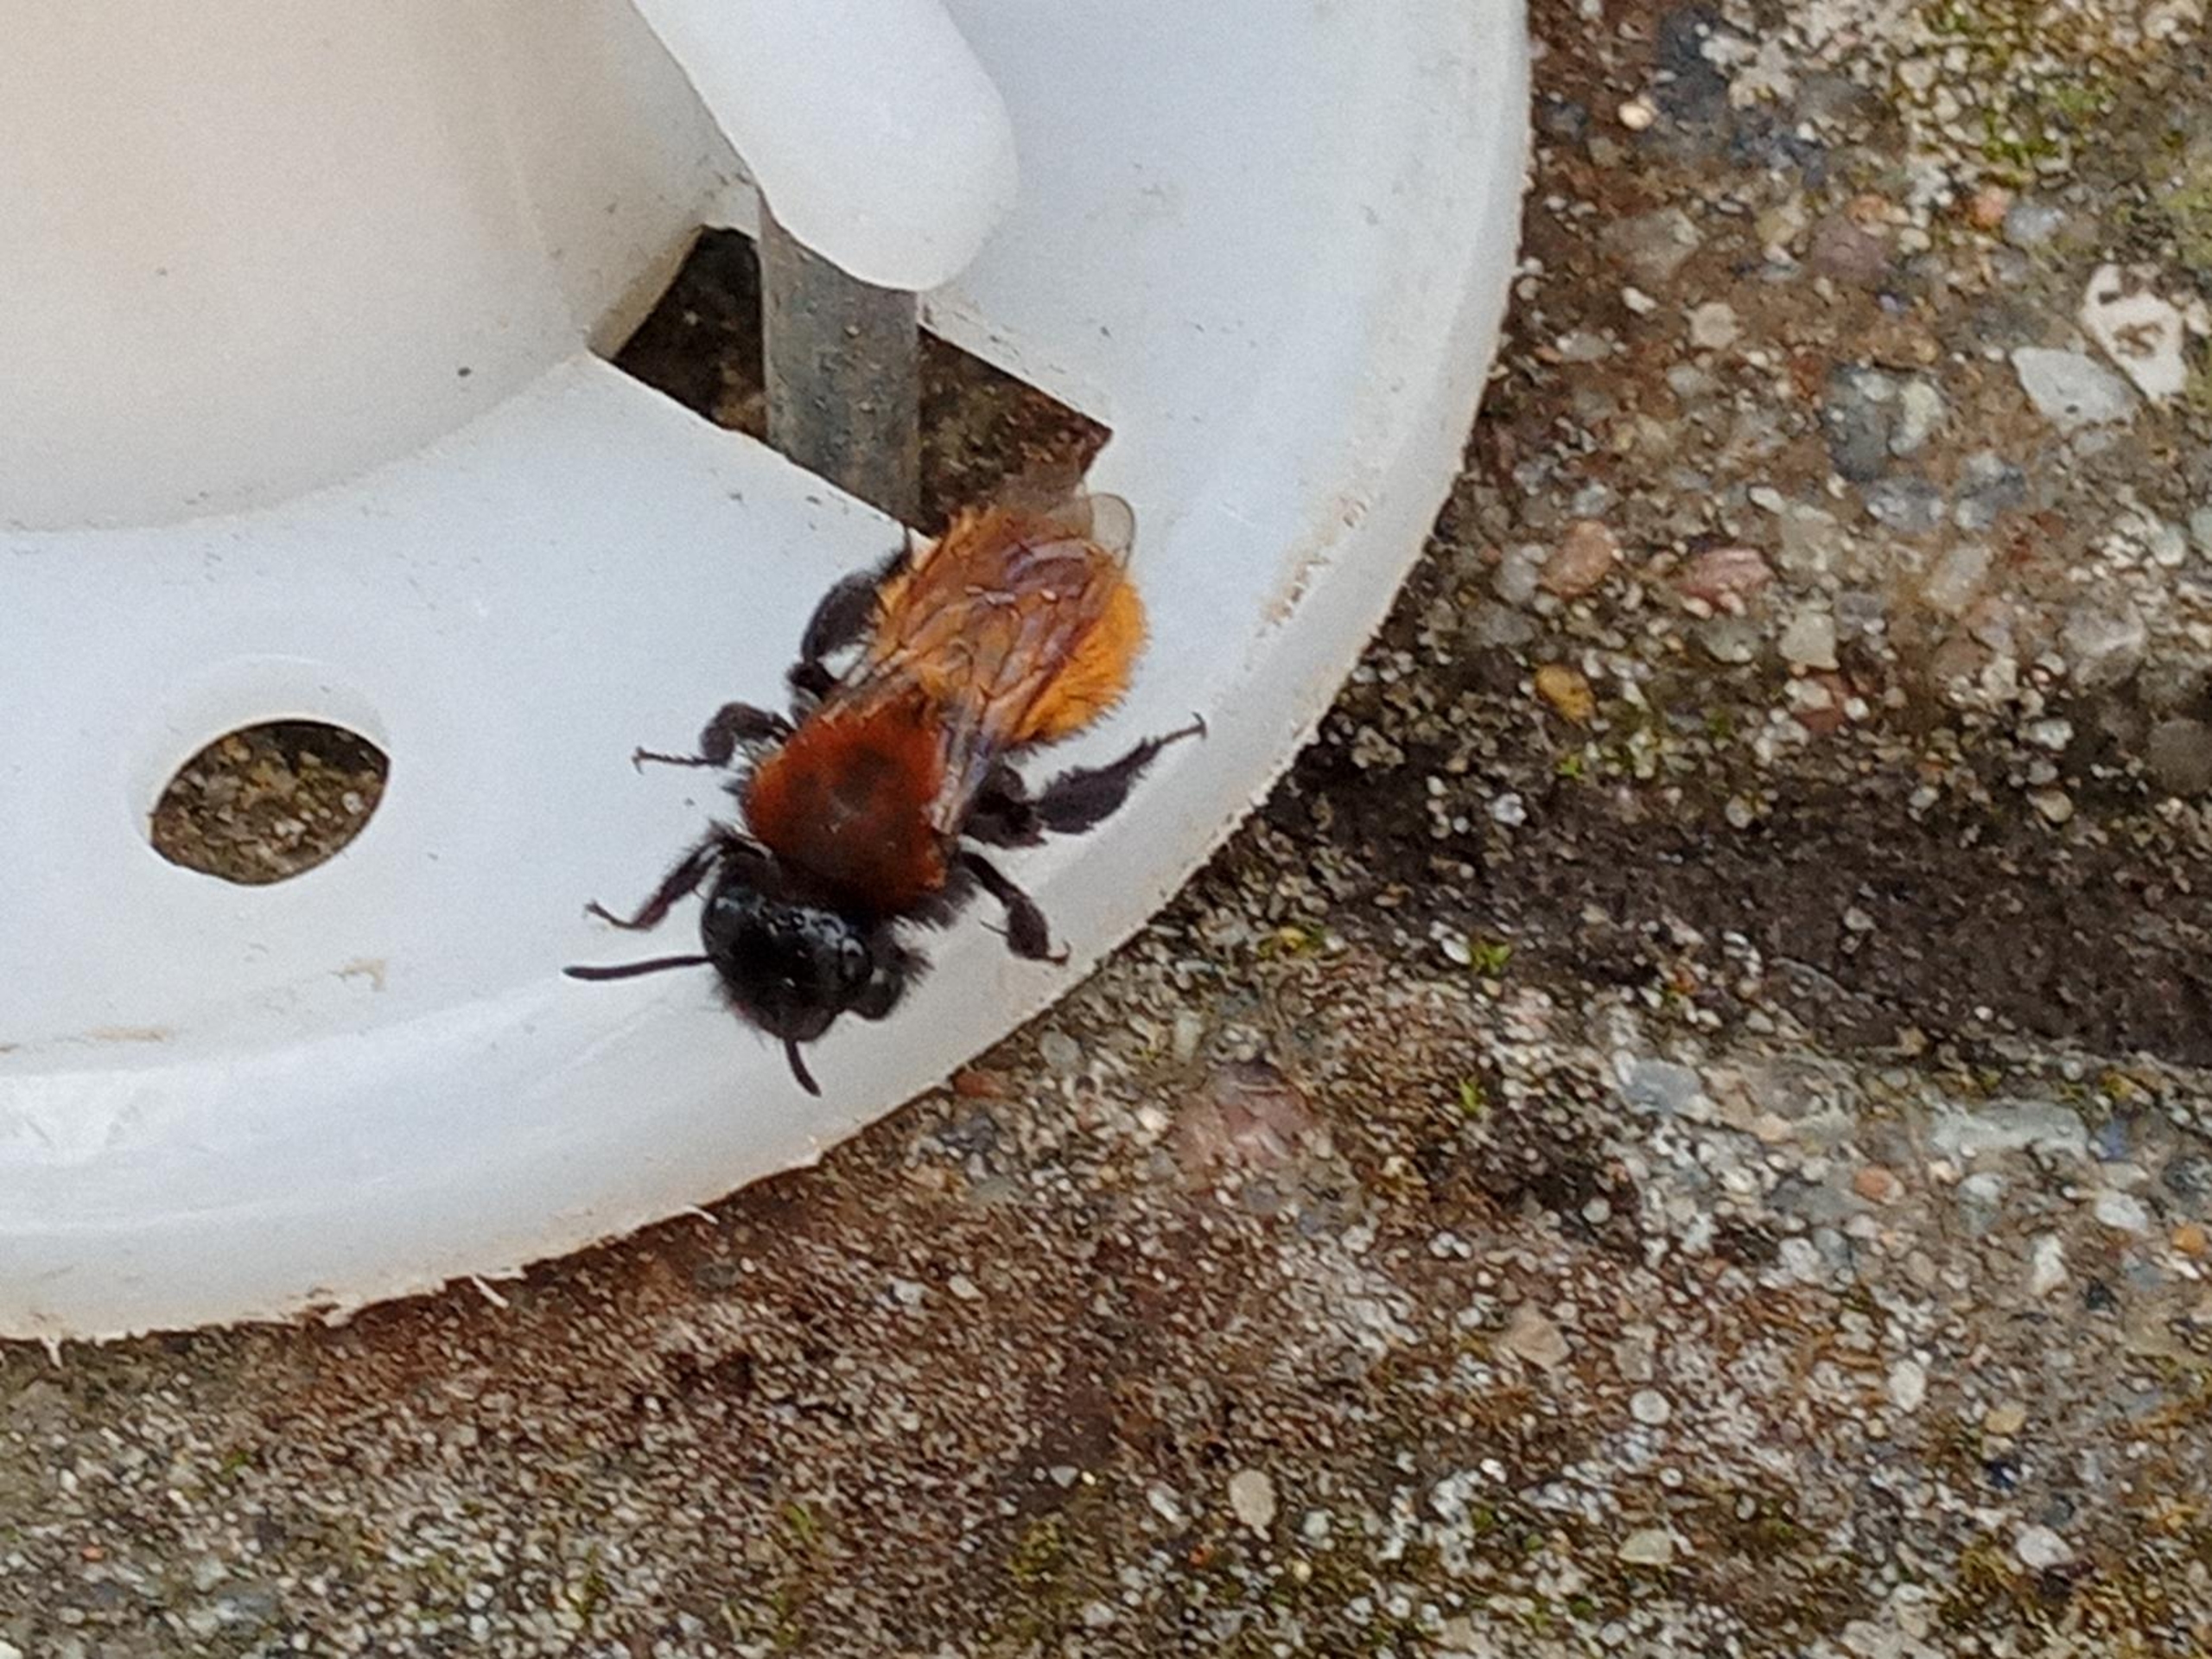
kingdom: Animalia
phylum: Arthropoda
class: Insecta
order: Hymenoptera
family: Andrenidae
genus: Andrena
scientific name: Andrena fulva
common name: Rødpelset jordbi
